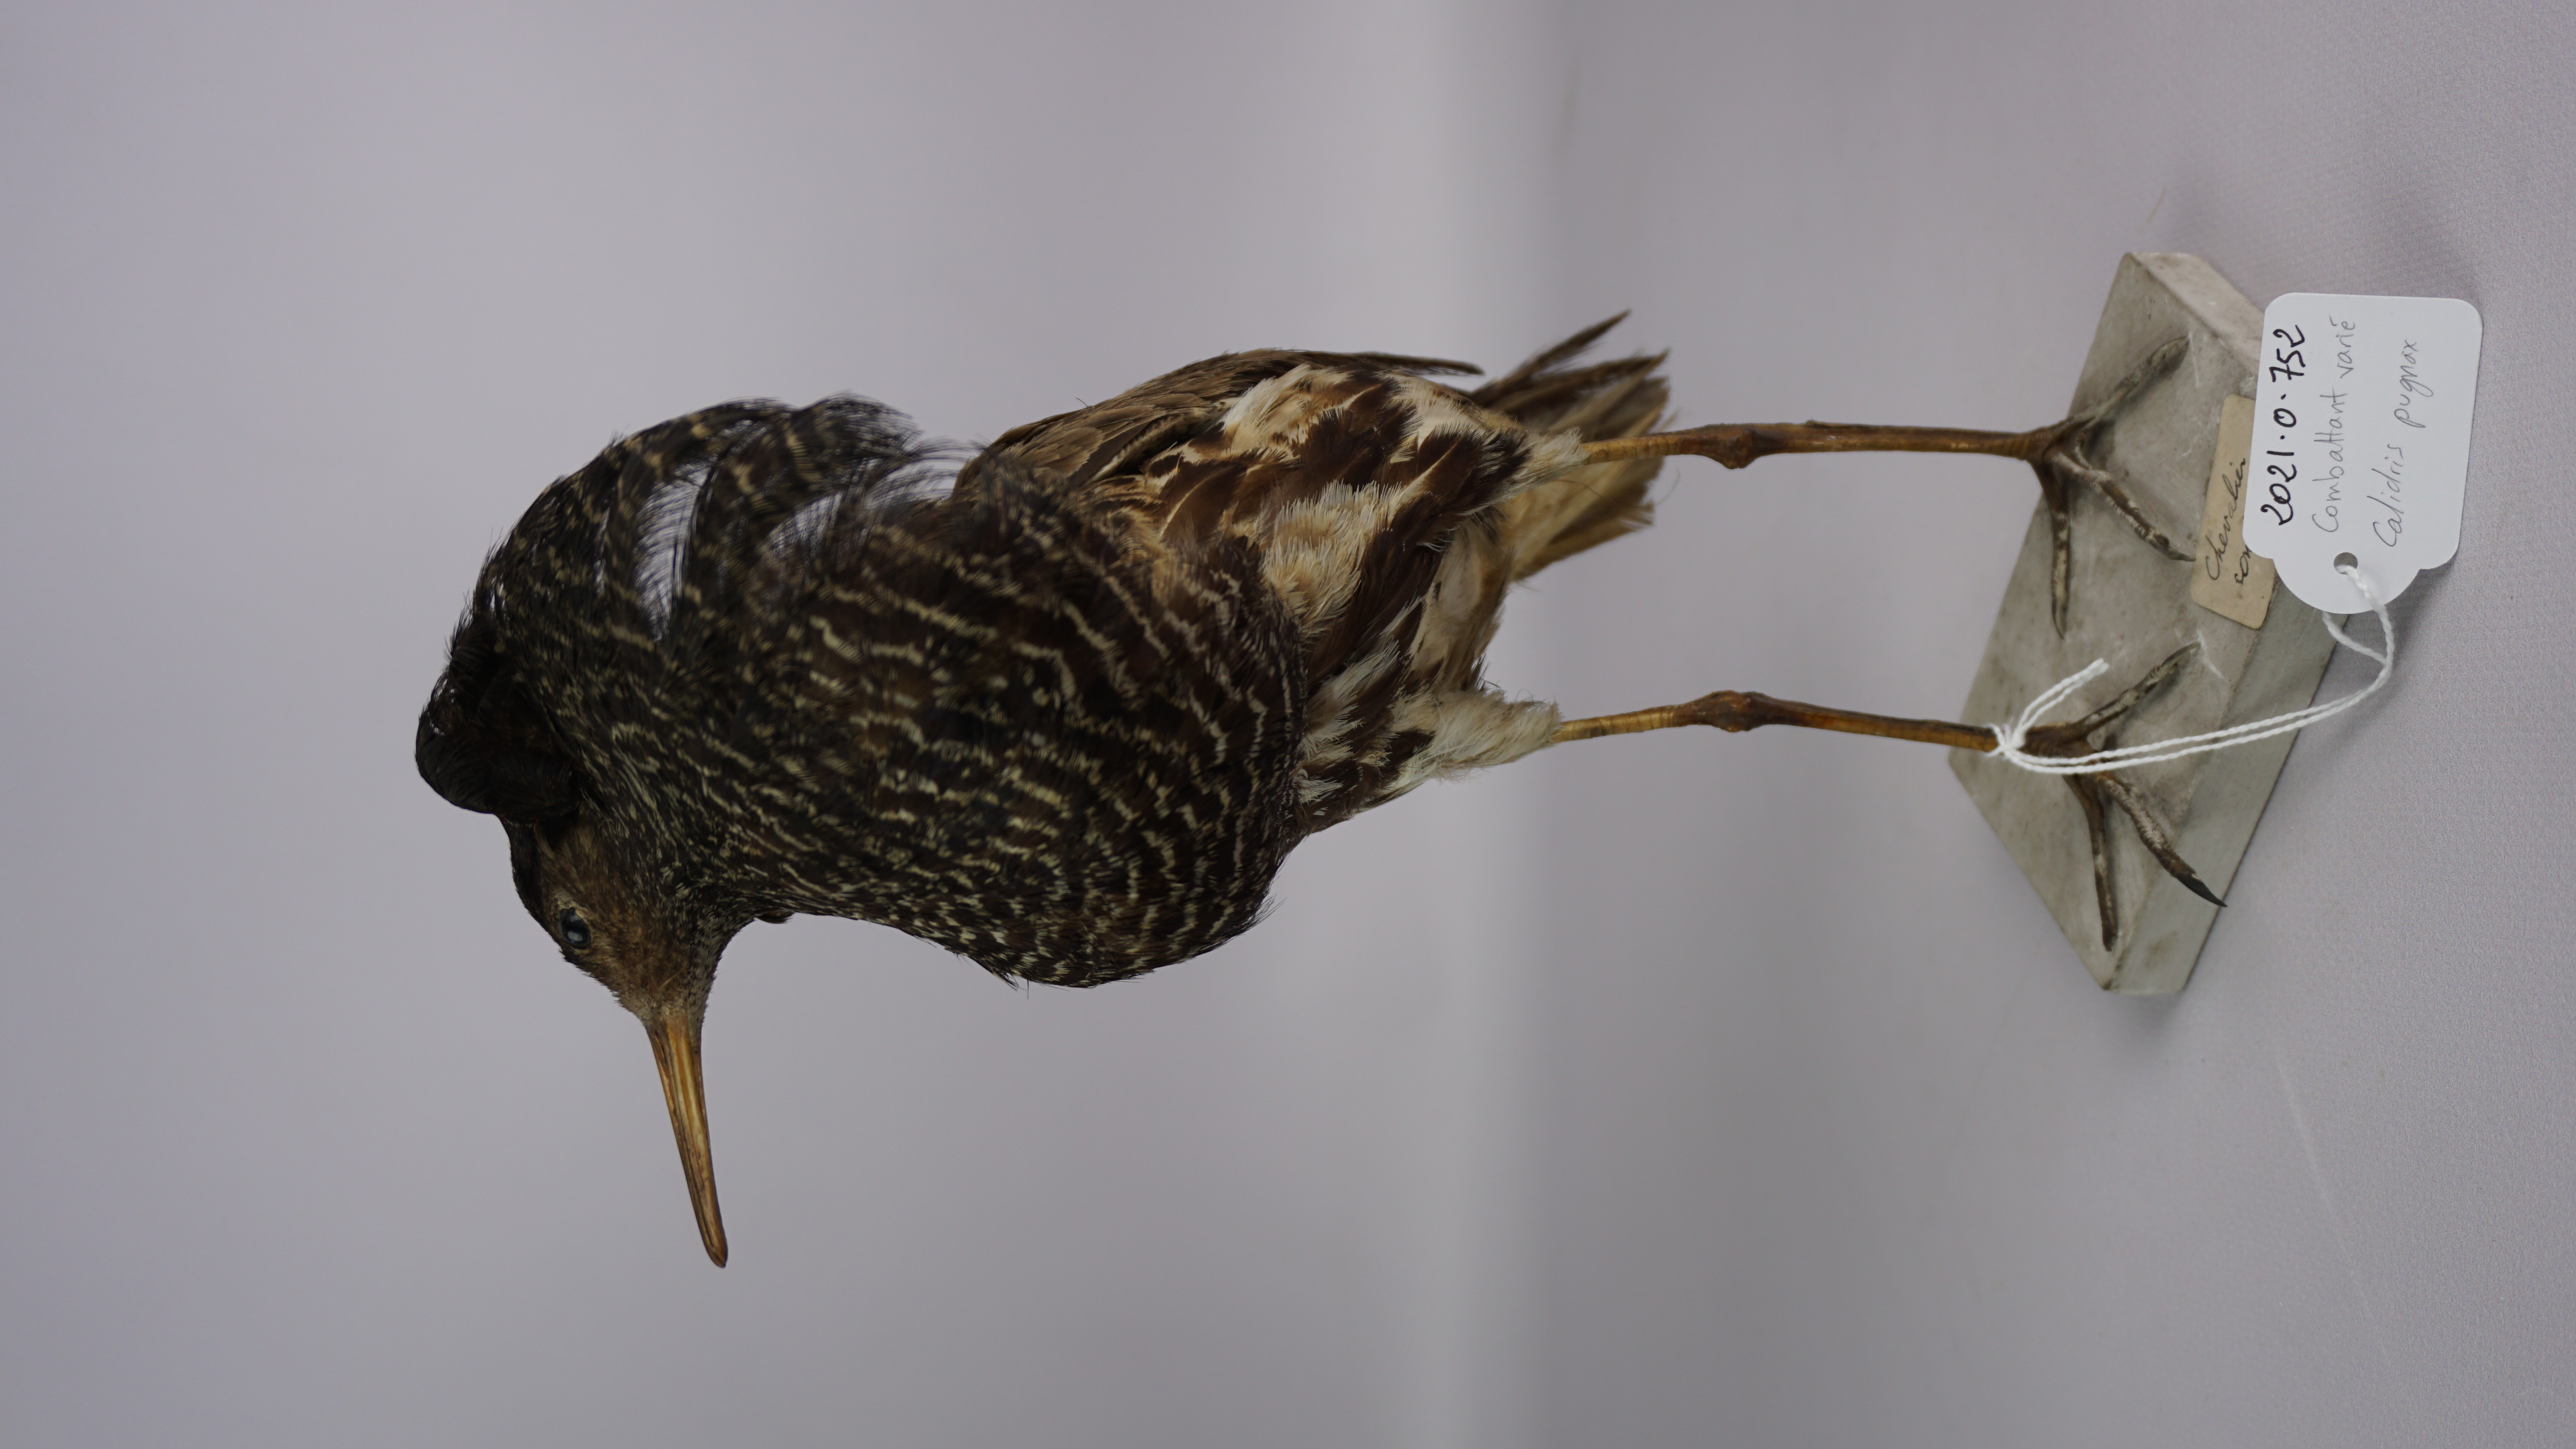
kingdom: Animalia
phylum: Chordata
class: Aves
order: Charadriiformes
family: Scolopacidae
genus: Calidris
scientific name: Calidris pugnax
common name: Ruff
